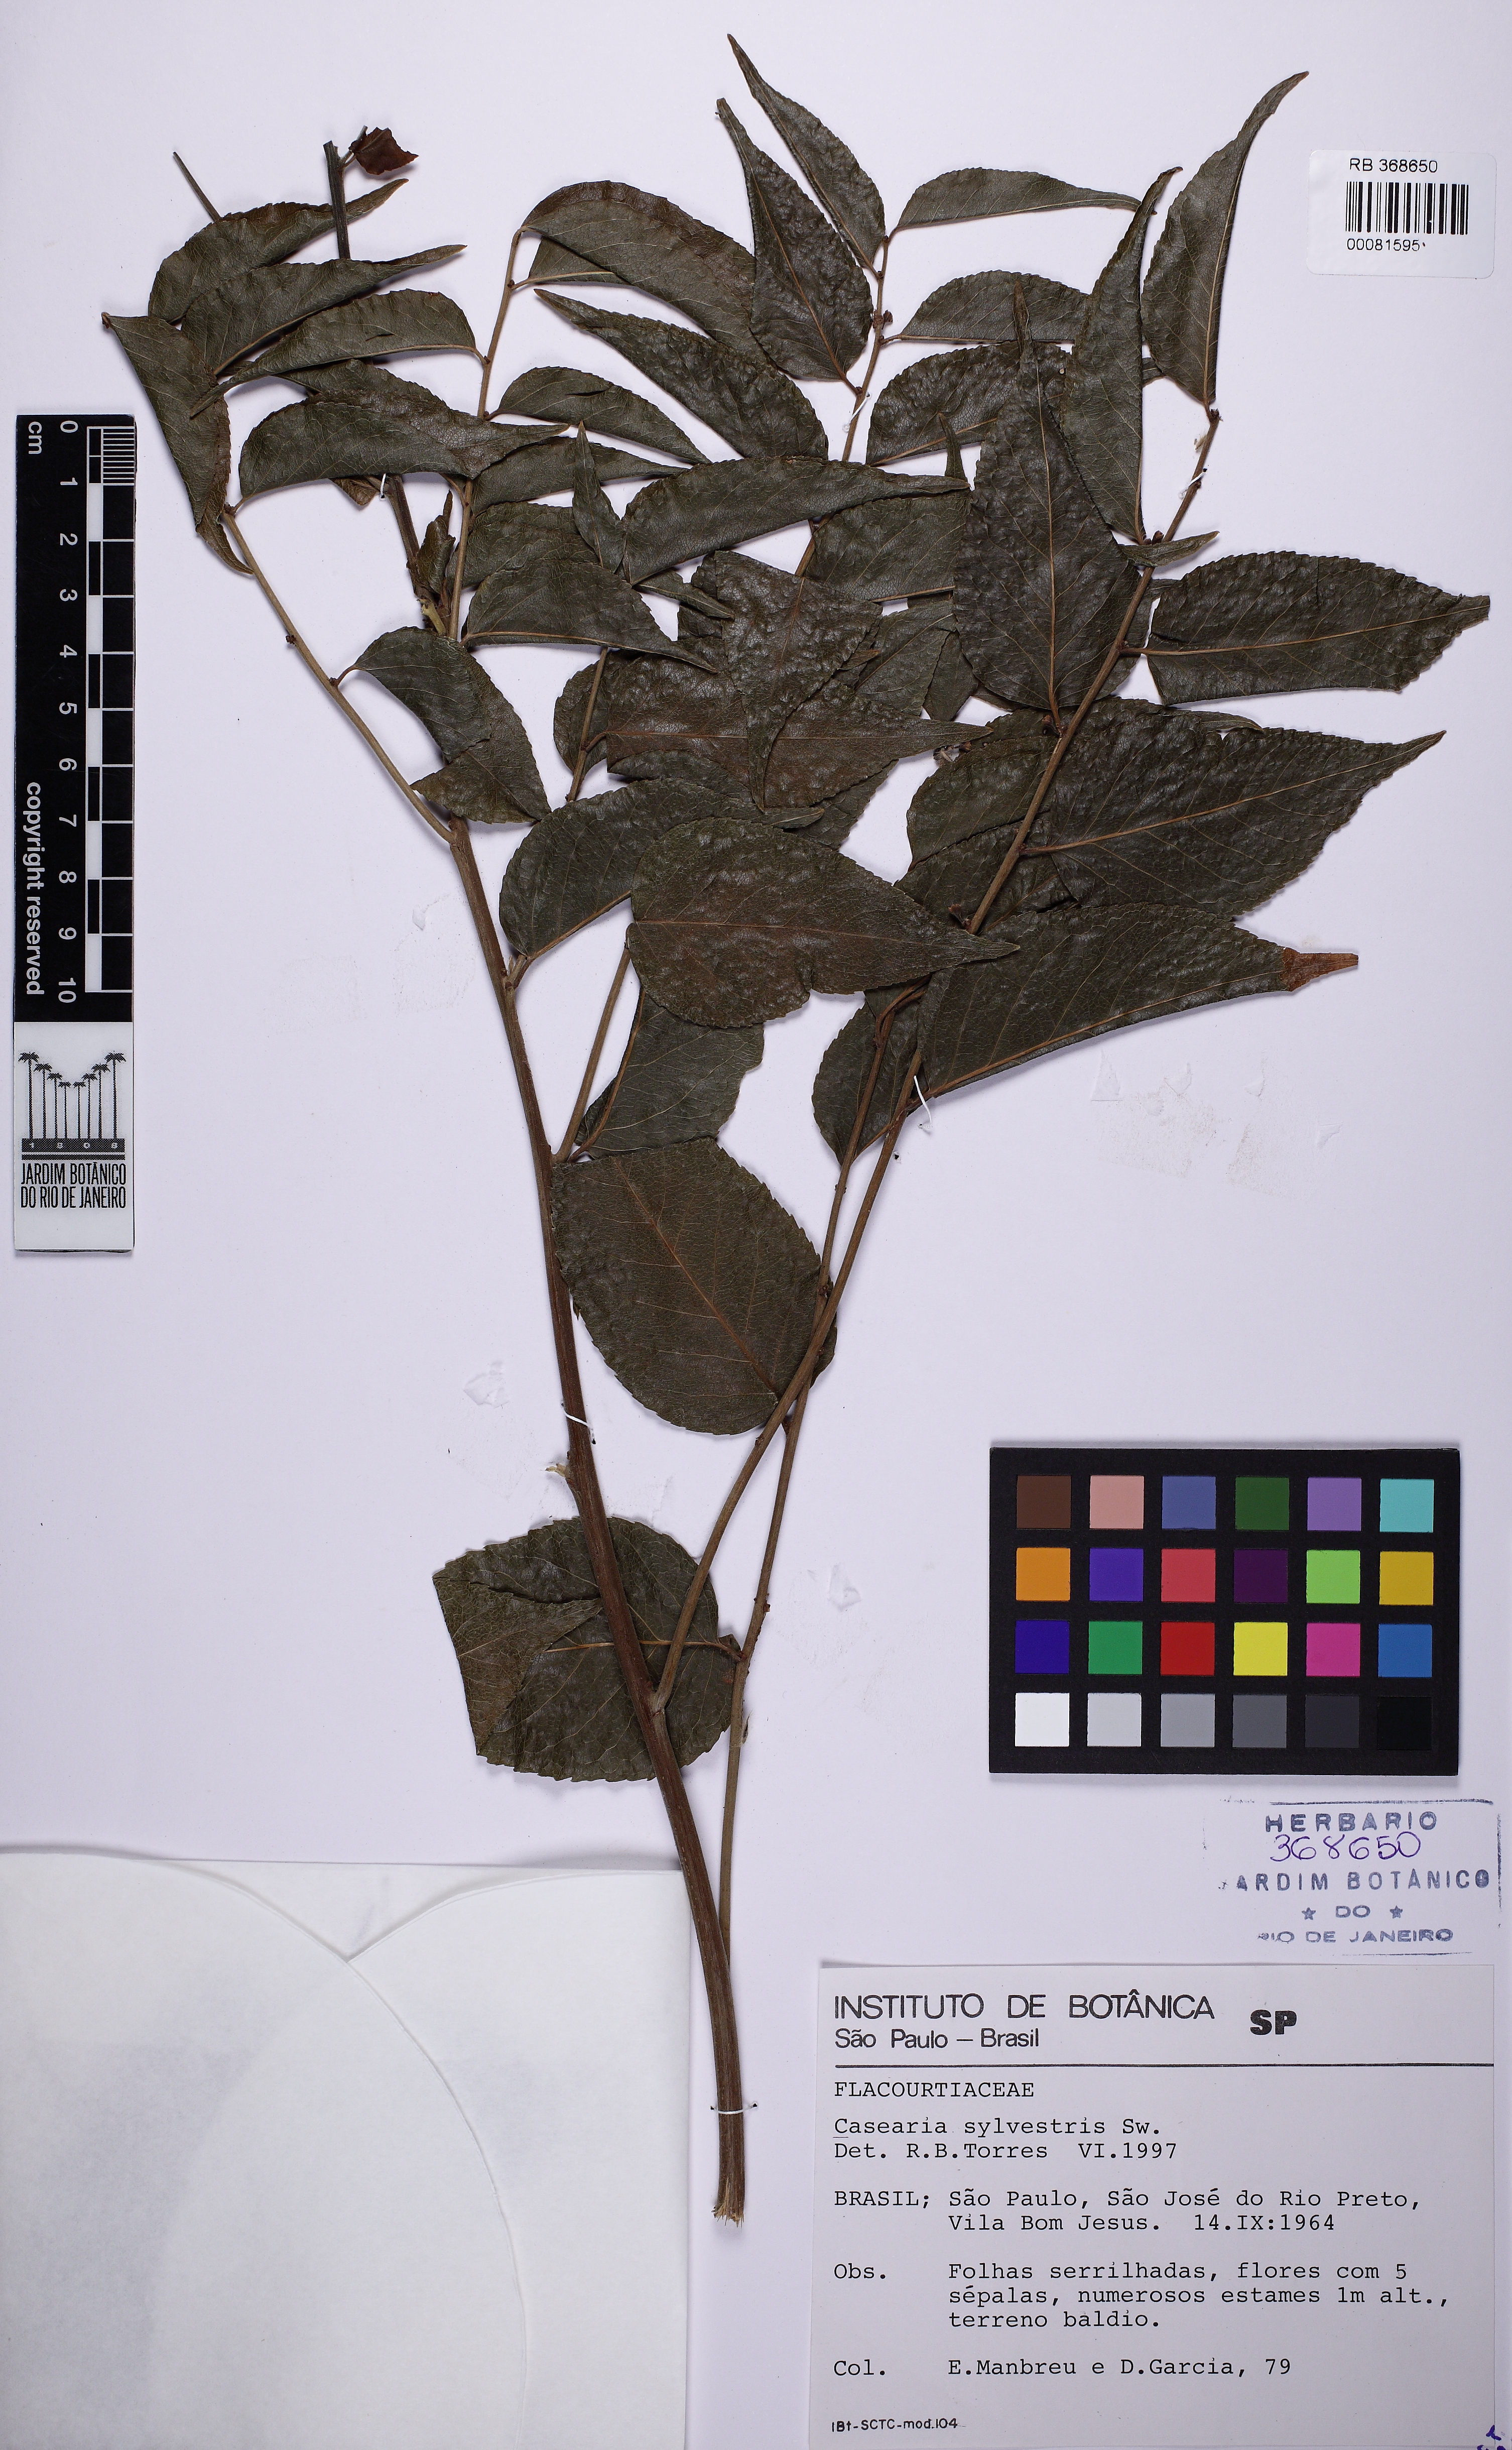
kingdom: Plantae
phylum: Tracheophyta
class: Magnoliopsida
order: Malpighiales
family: Salicaceae
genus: Casearia
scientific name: Casearia gossypiosperma
